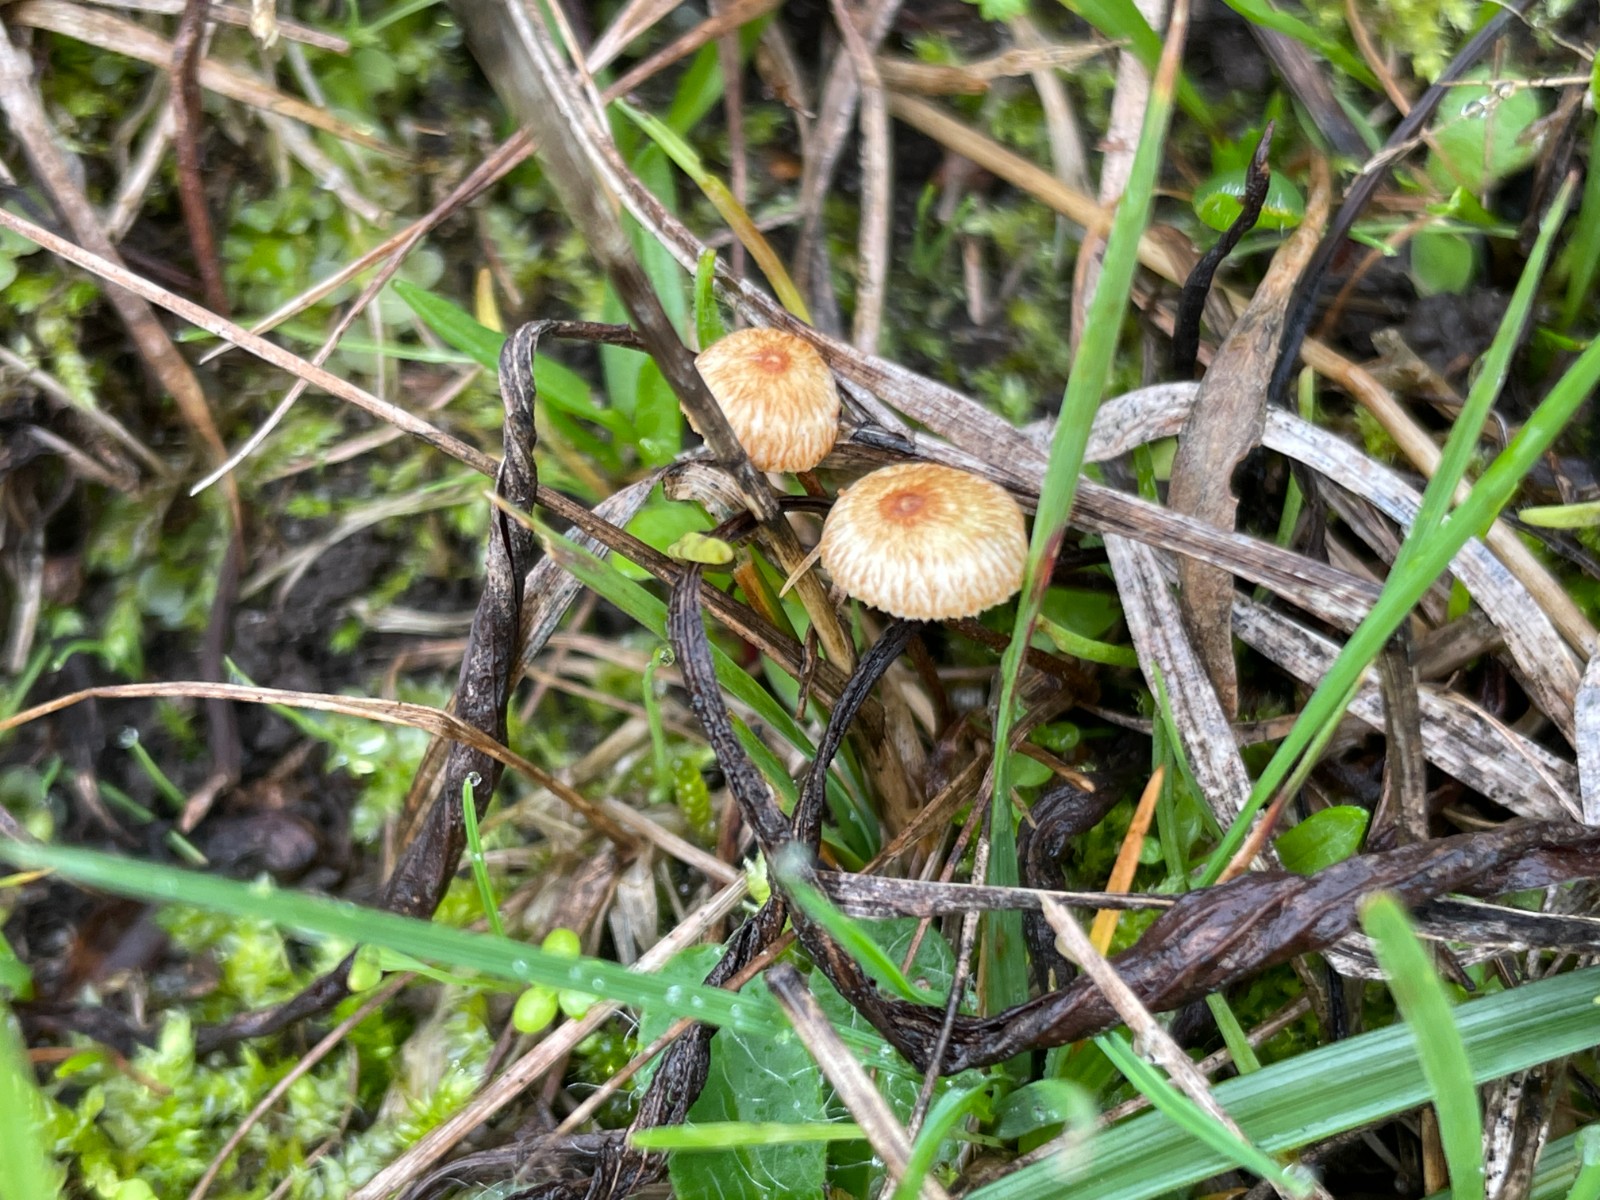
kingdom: Fungi
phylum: Basidiomycota
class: Agaricomycetes
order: Agaricales
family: Marasmiaceae
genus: Crinipellis
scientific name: Crinipellis scabella
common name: børstefod
